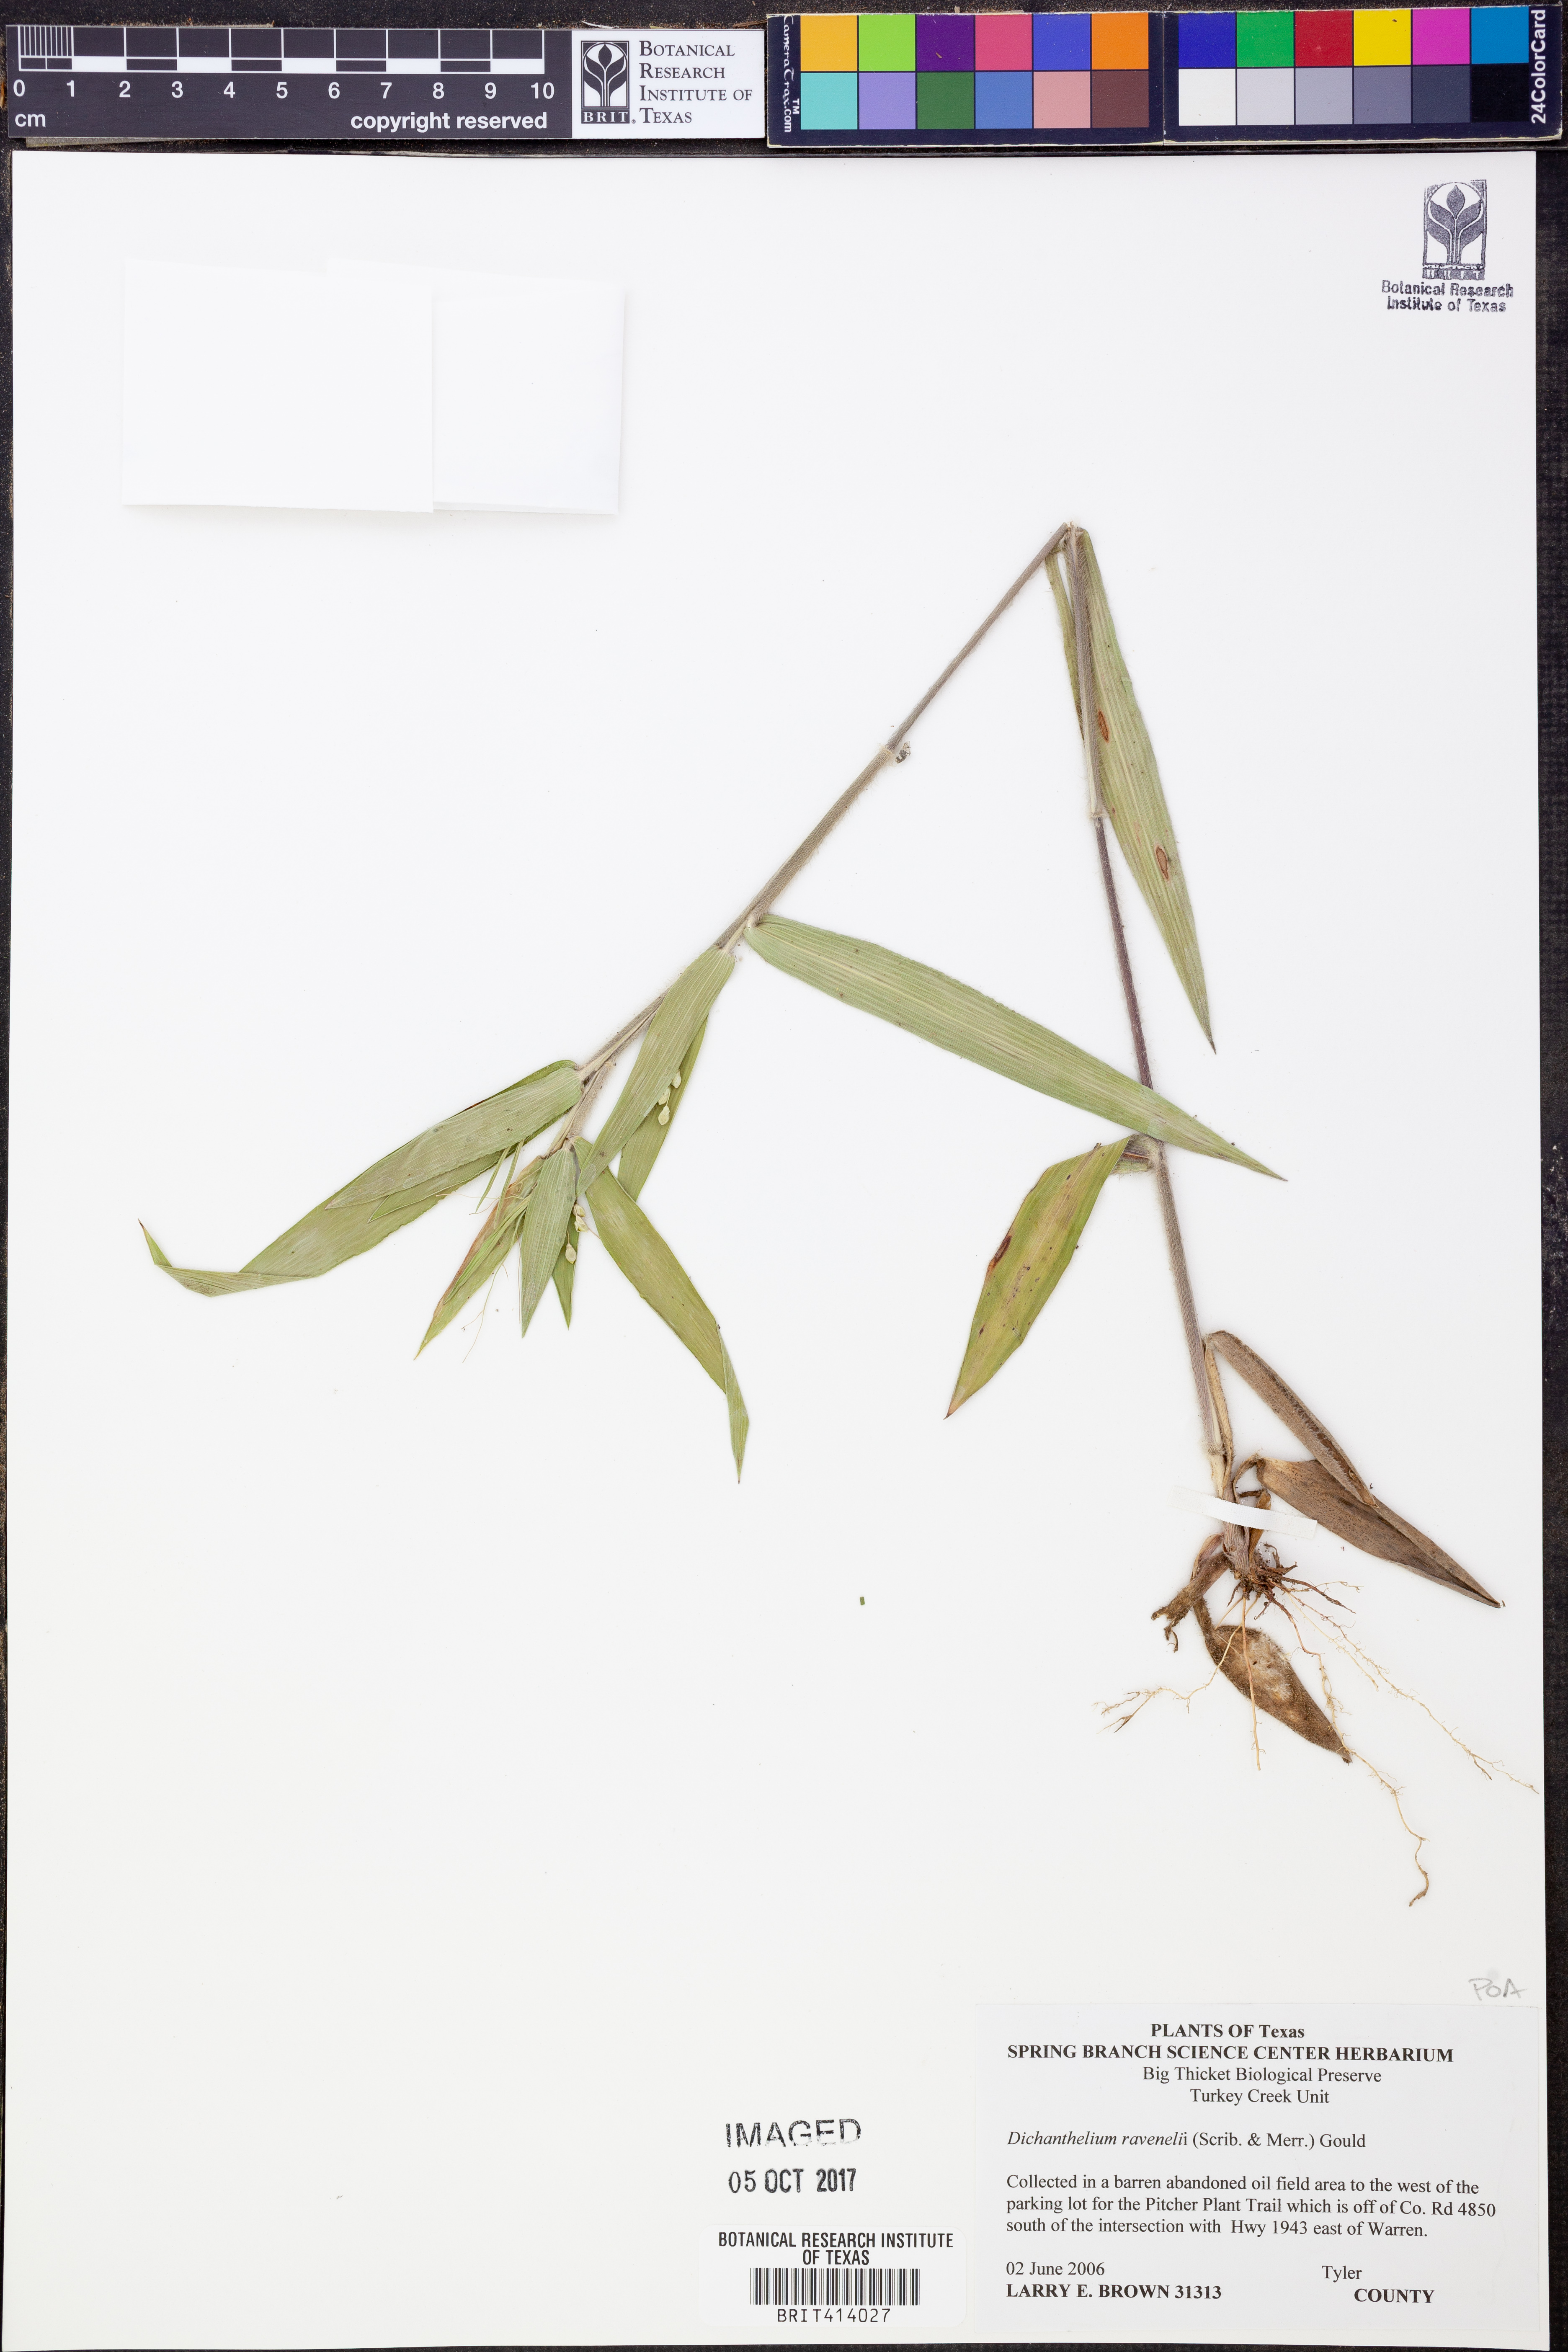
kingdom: Plantae
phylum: Tracheophyta
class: Liliopsida
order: Poales
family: Poaceae
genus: Dichanthelium
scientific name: Dichanthelium ravenelii
